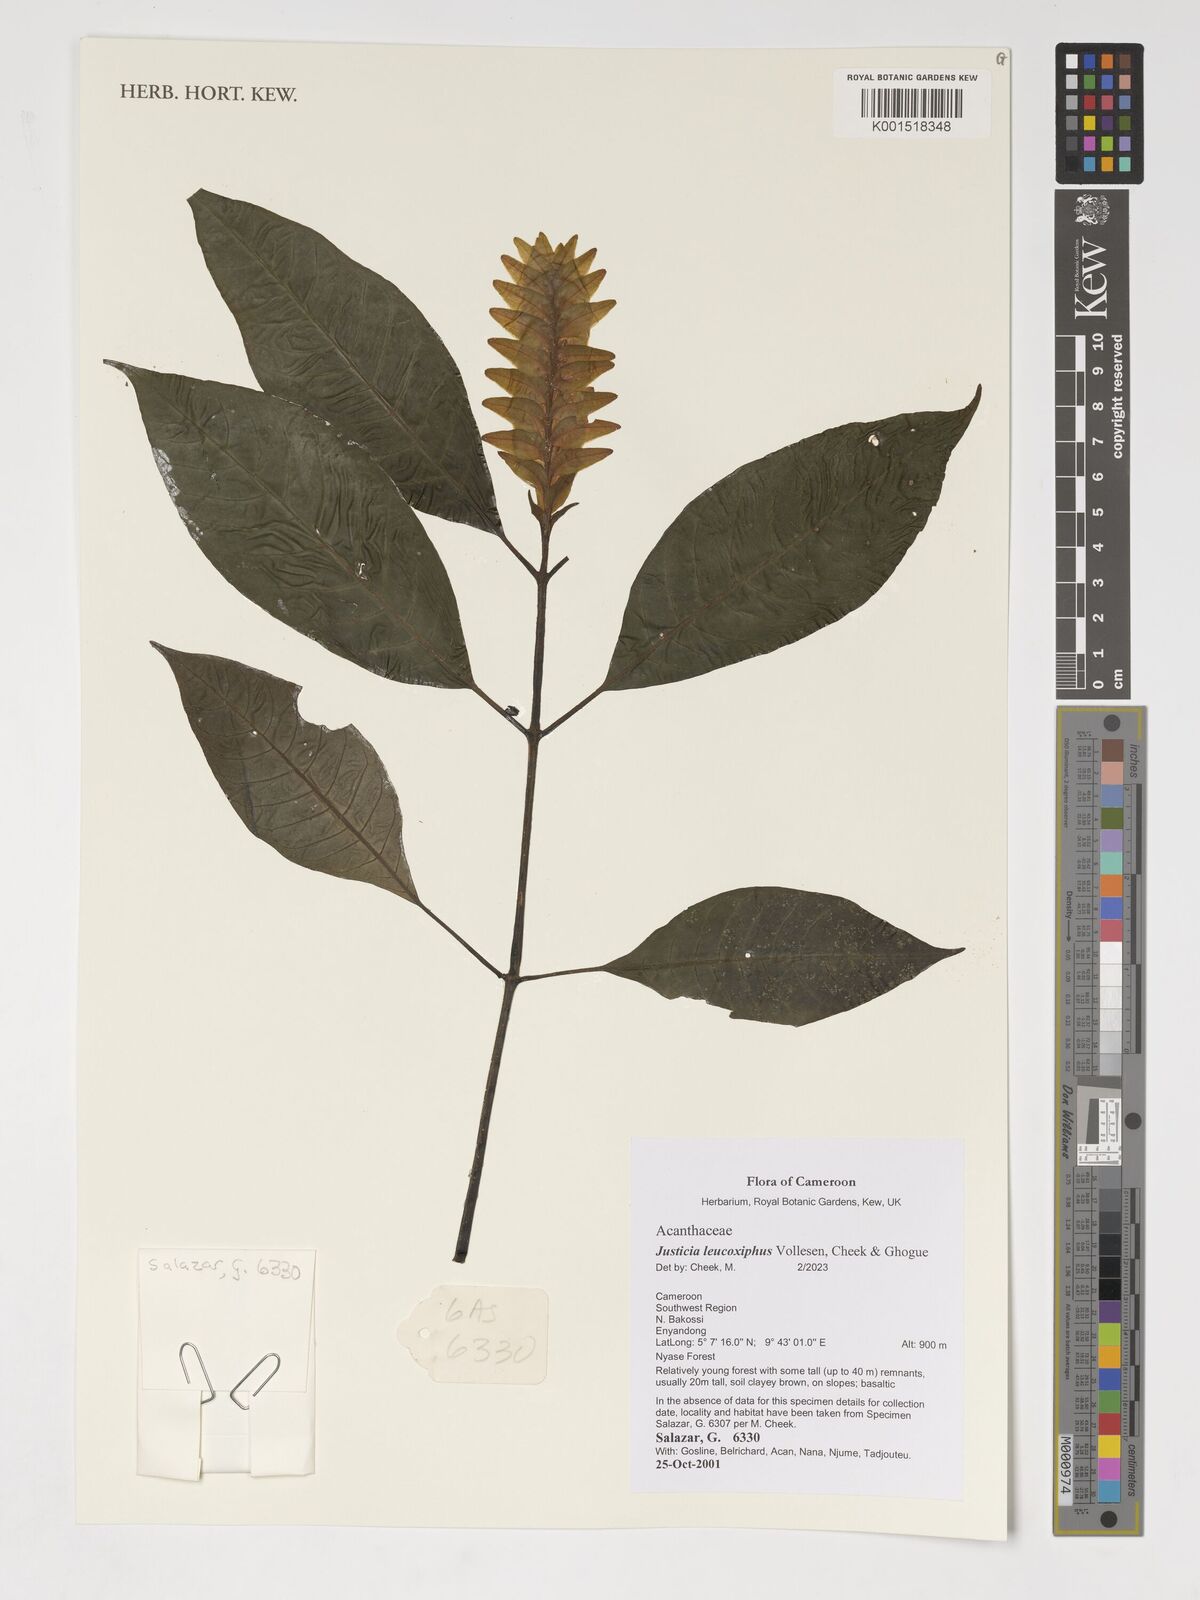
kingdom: Plantae
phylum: Tracheophyta
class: Magnoliopsida
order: Lamiales
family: Acanthaceae
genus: Justicia
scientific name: Justicia leucoxiphus
